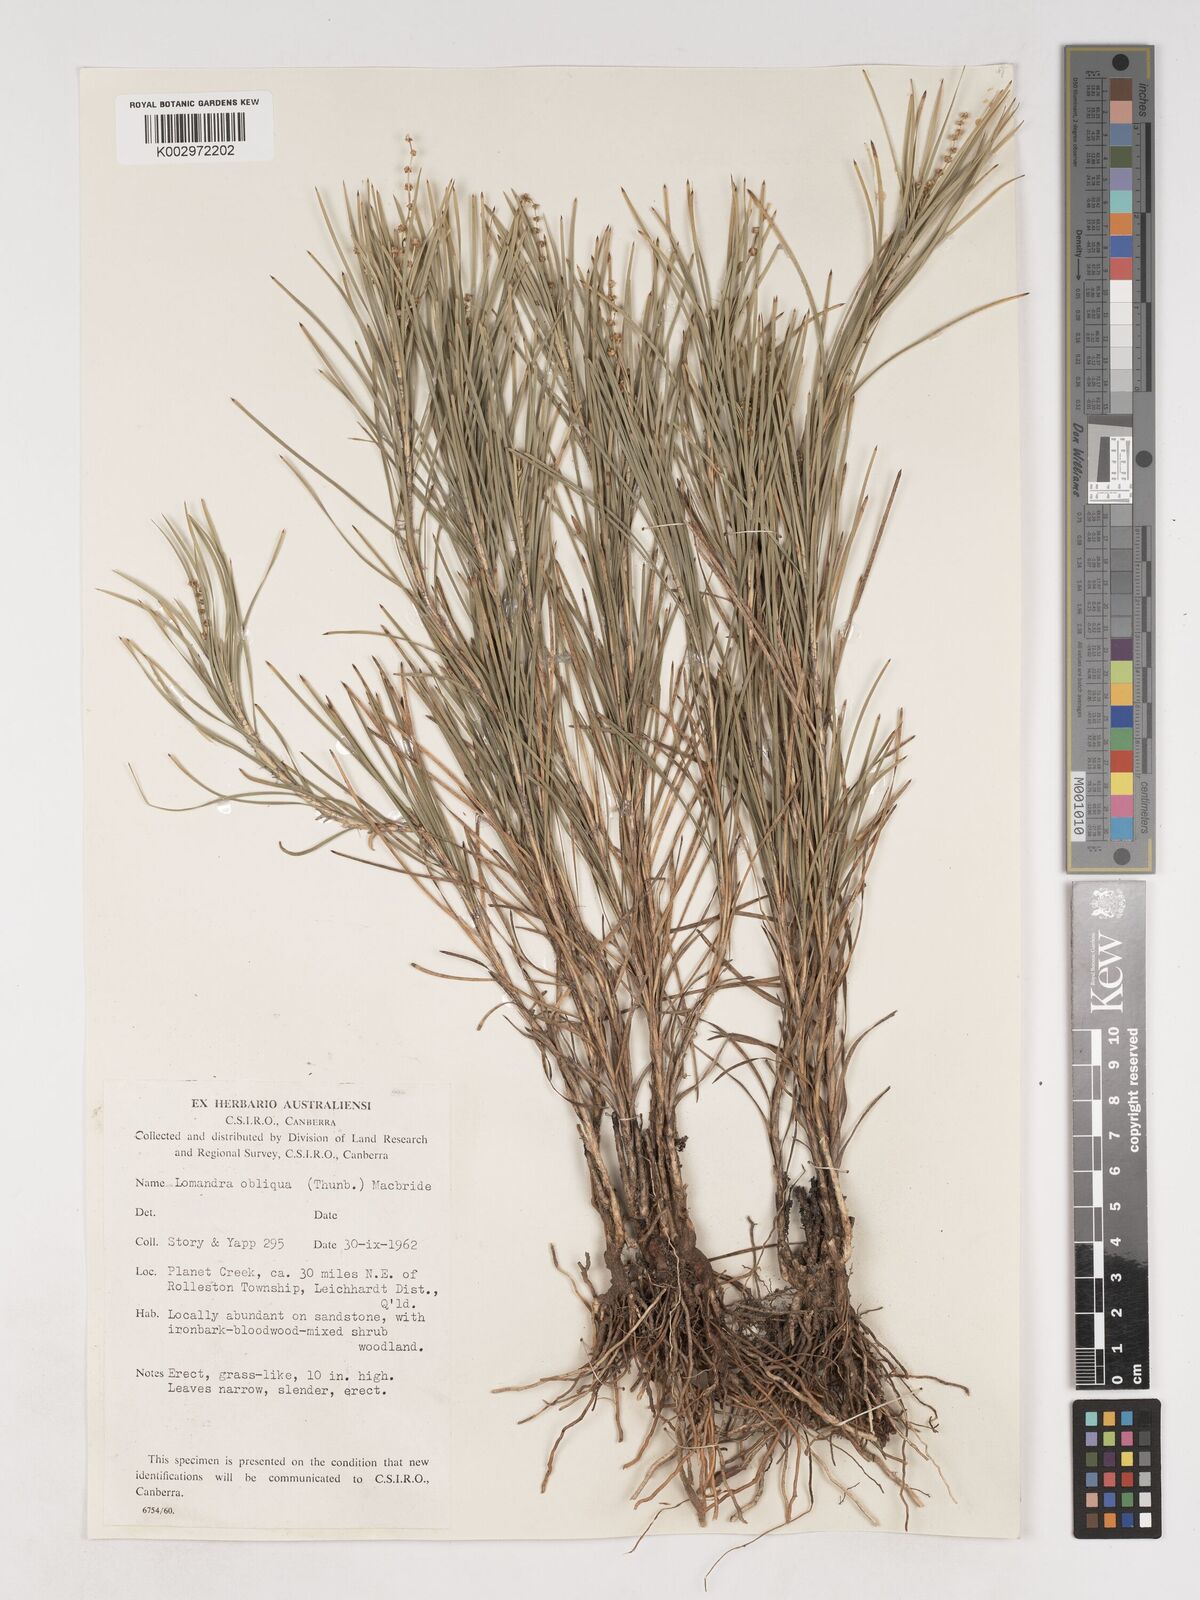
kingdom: Plantae
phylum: Tracheophyta
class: Liliopsida
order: Asparagales
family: Asparagaceae
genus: Lomandra
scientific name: Lomandra obliqua
